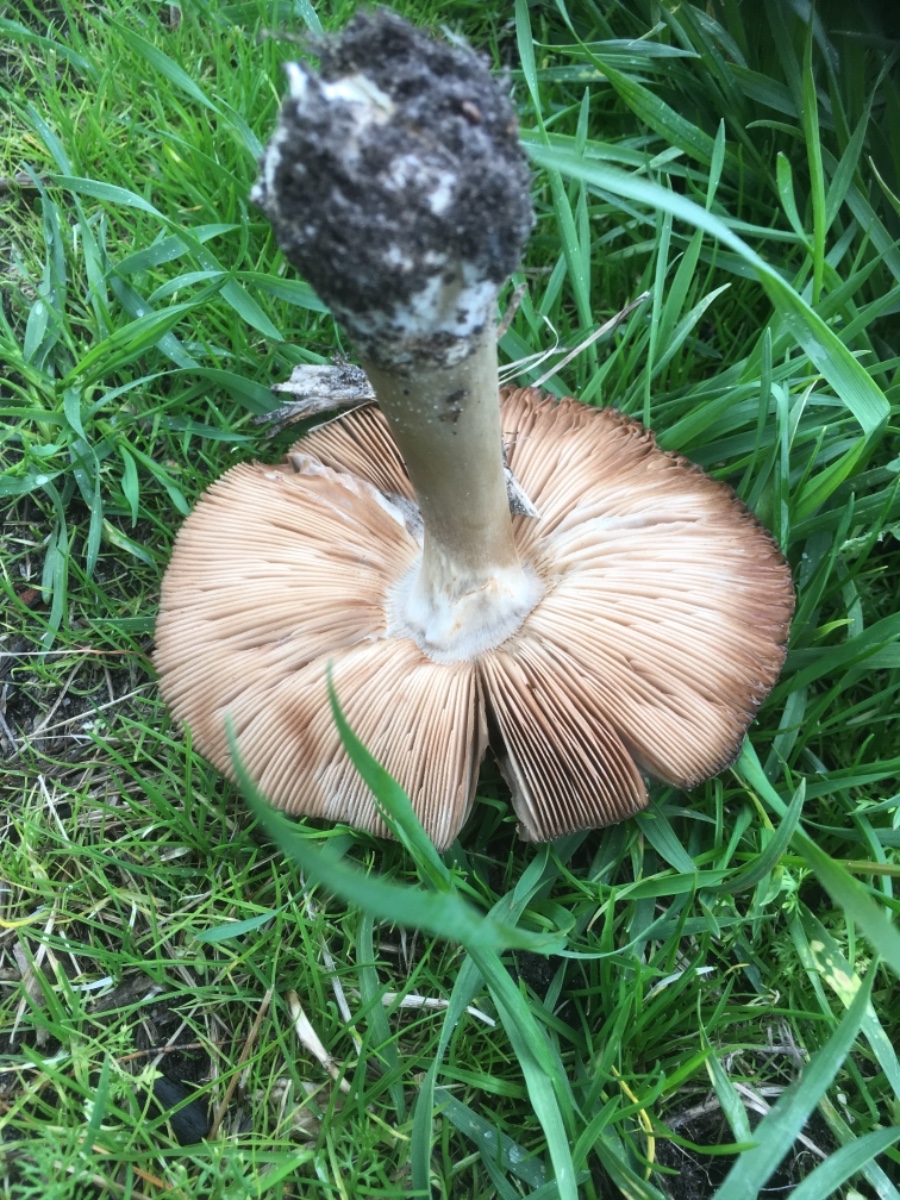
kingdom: Fungi
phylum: Basidiomycota
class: Agaricomycetes
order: Agaricales
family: Pluteaceae
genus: Volvopluteus
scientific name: Volvopluteus gloiocephalus
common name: høj posesvamp
